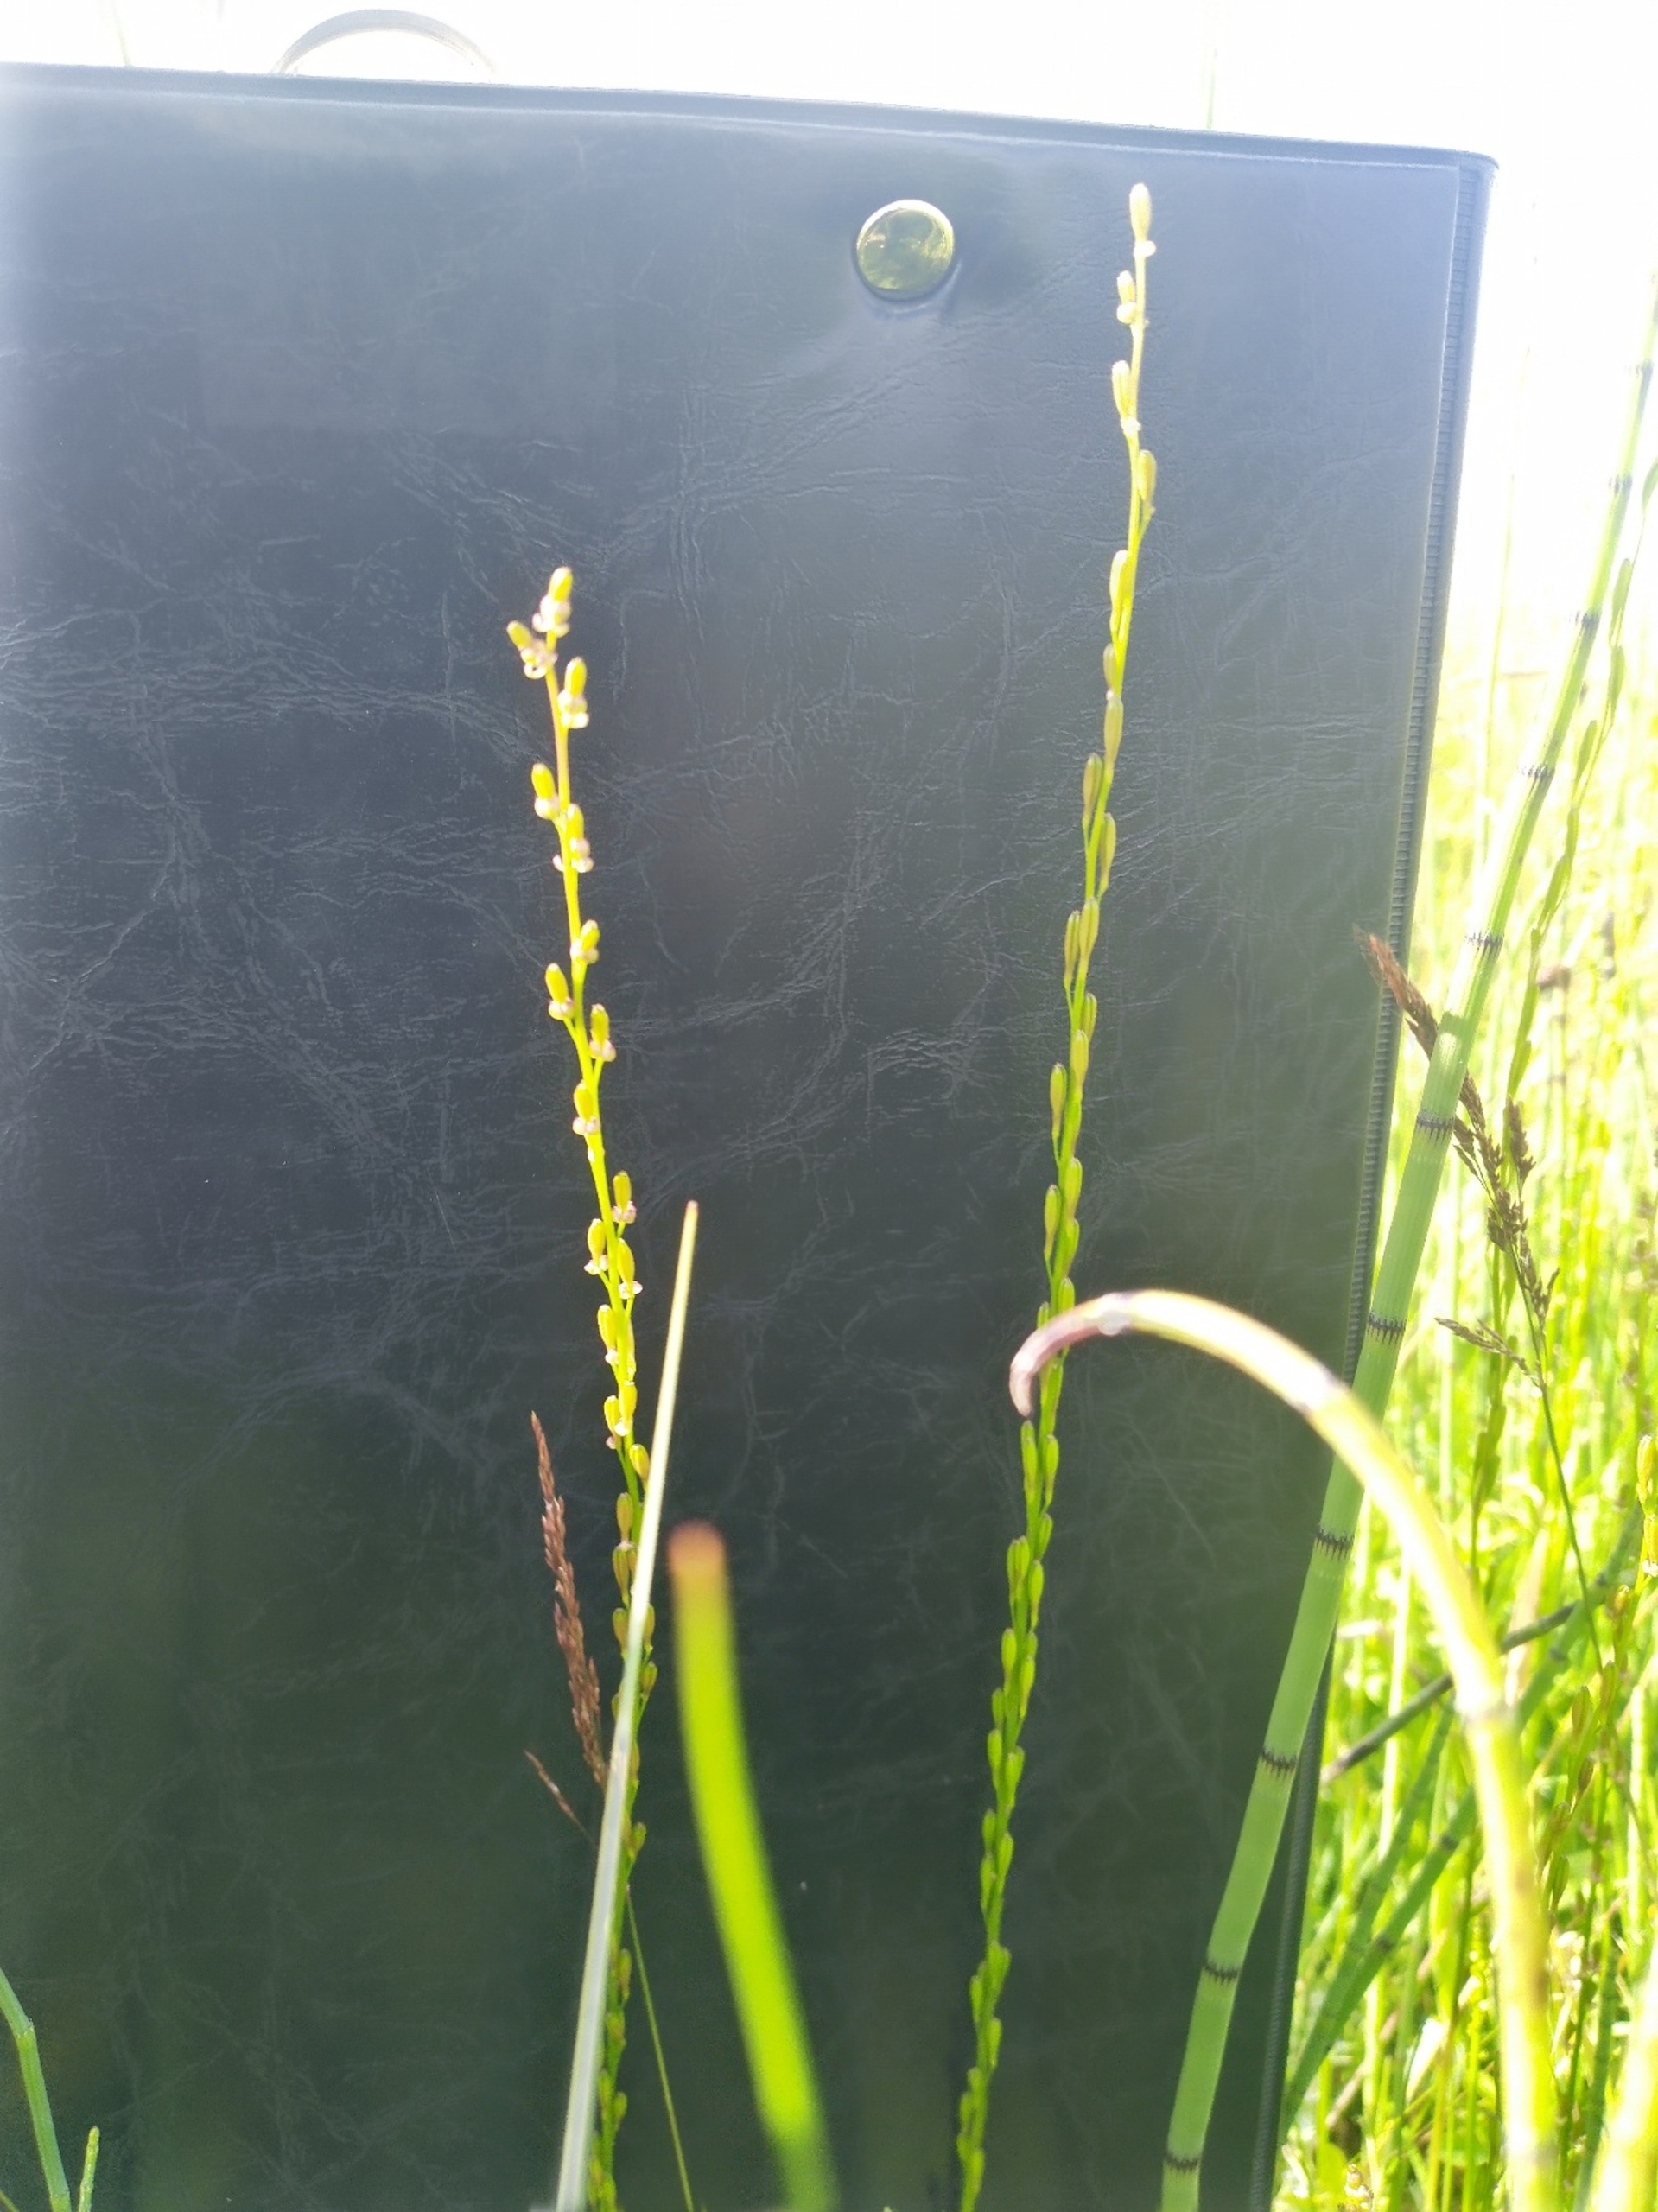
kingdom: Plantae
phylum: Tracheophyta
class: Liliopsida
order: Alismatales
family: Juncaginaceae
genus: Triglochin
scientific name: Triglochin palustris
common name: Kær-trehage
